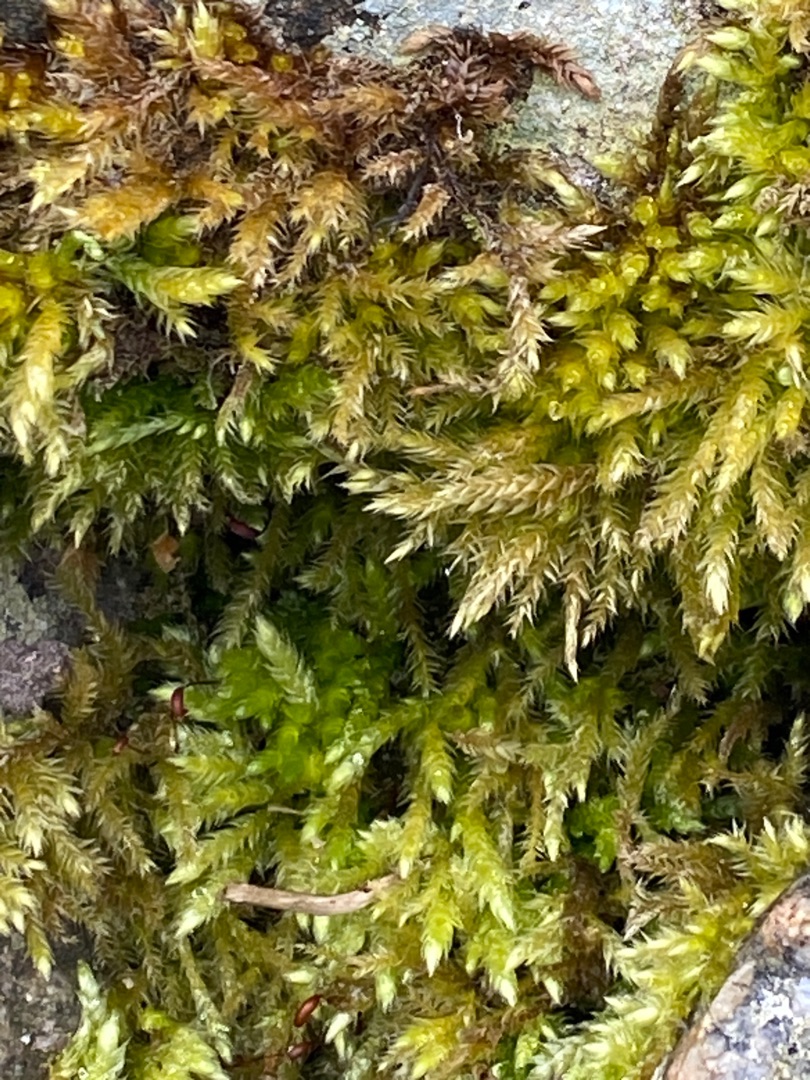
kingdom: Plantae
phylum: Bryophyta
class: Bryopsida
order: Hypnales
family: Brachytheciaceae
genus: Brachythecium
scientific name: Brachythecium rutabulum
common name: Almindelig kortkapsel
